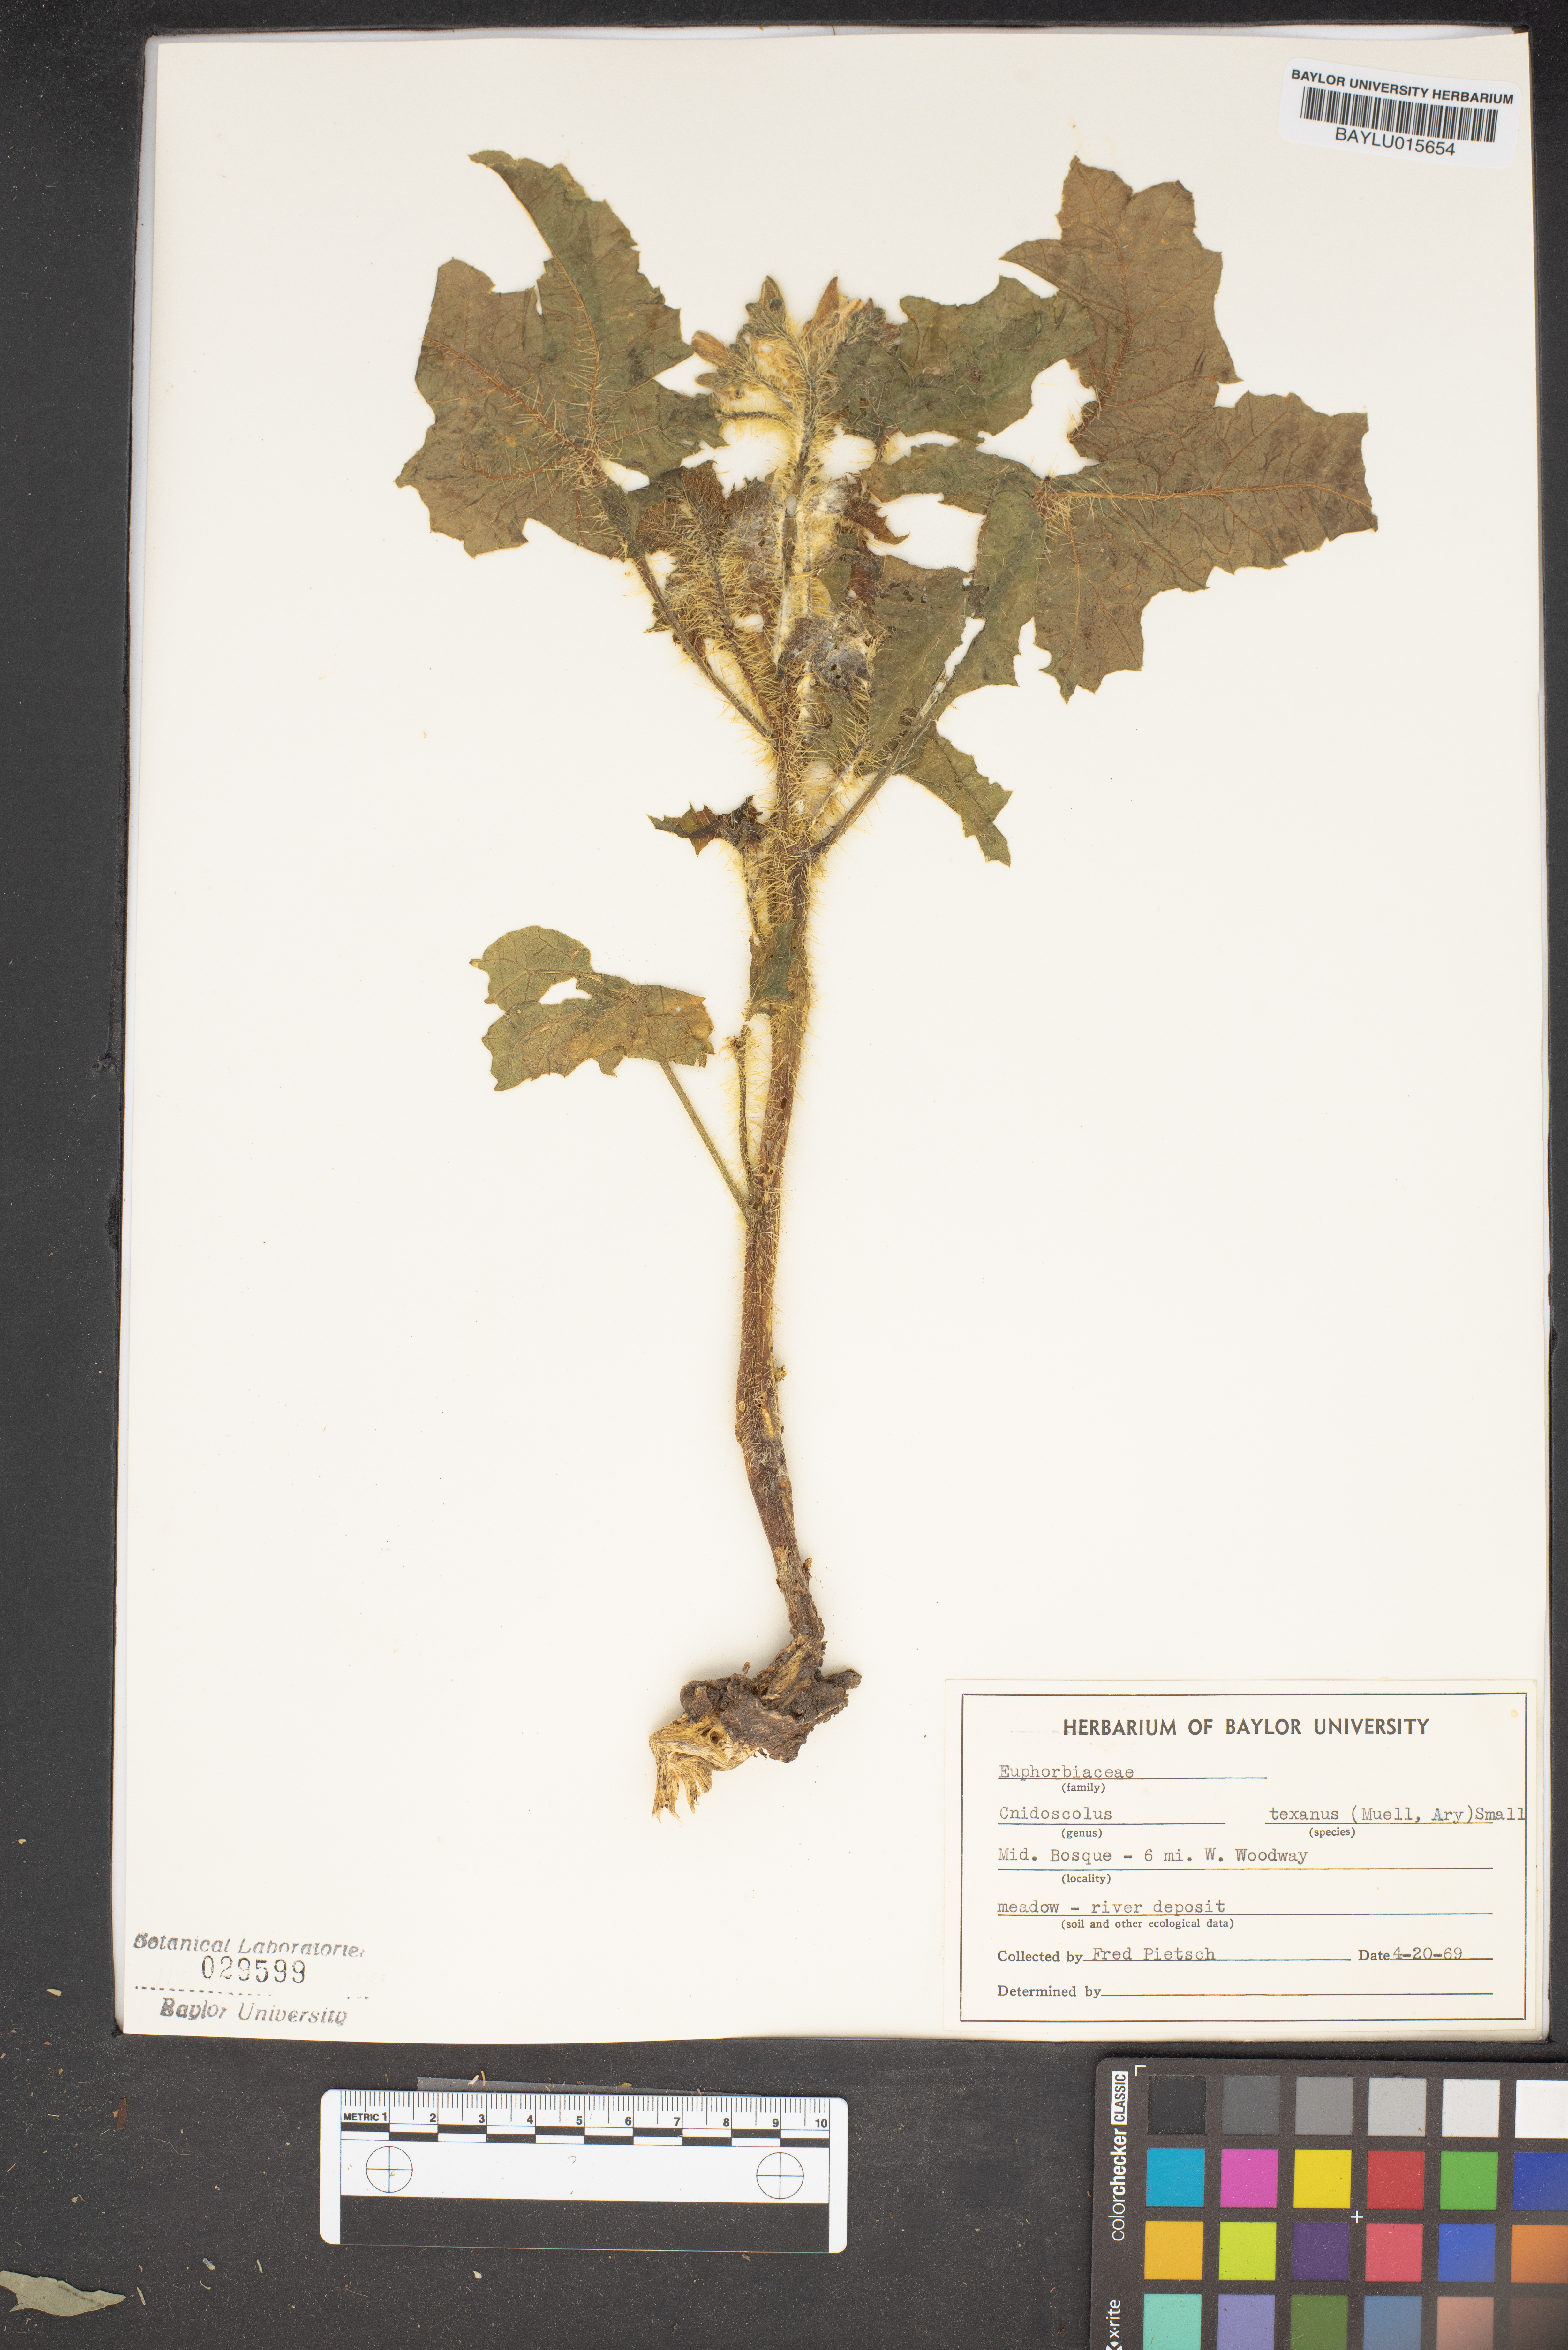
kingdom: Plantae
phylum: Tracheophyta
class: Magnoliopsida
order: Malpighiales
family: Euphorbiaceae
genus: Cnidoscolus
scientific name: Cnidoscolus texanus
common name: Texas bull-nettle
